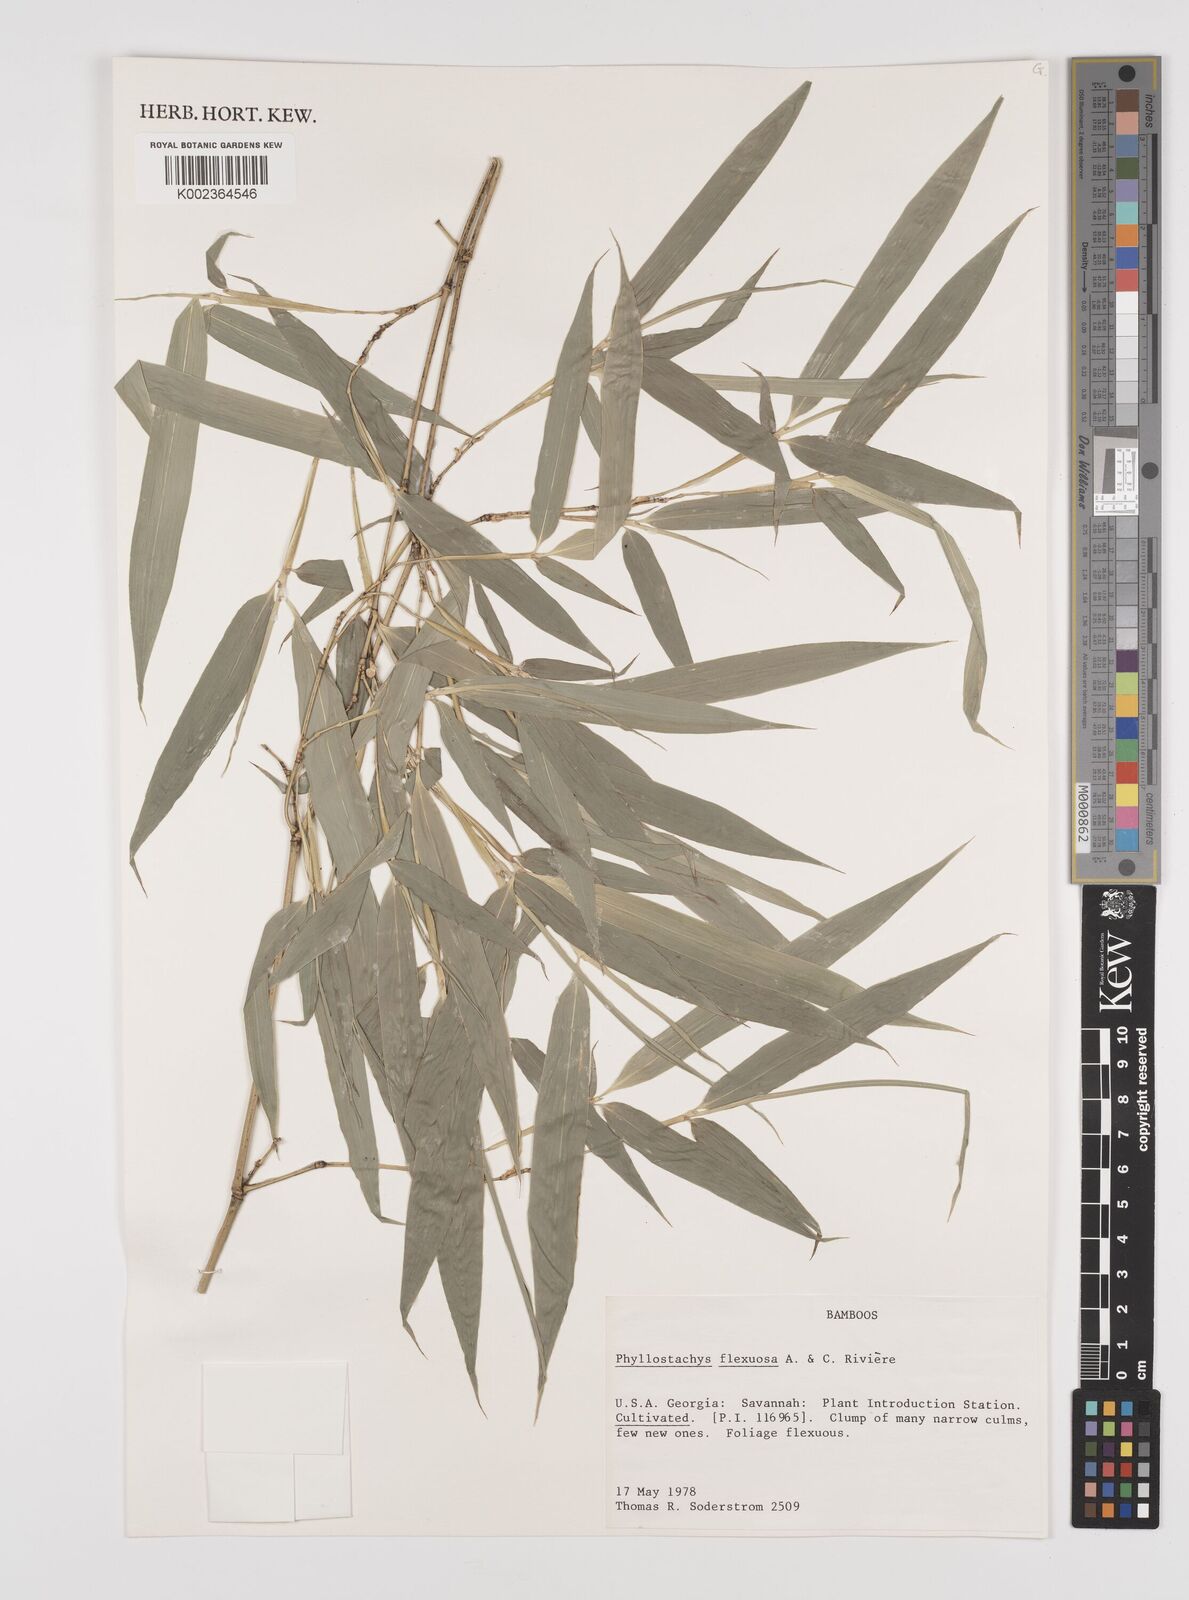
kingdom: Plantae
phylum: Tracheophyta
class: Liliopsida
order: Poales
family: Poaceae
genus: Phyllostachys
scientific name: Phyllostachys flexuosa
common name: Drooping timber bamboo
